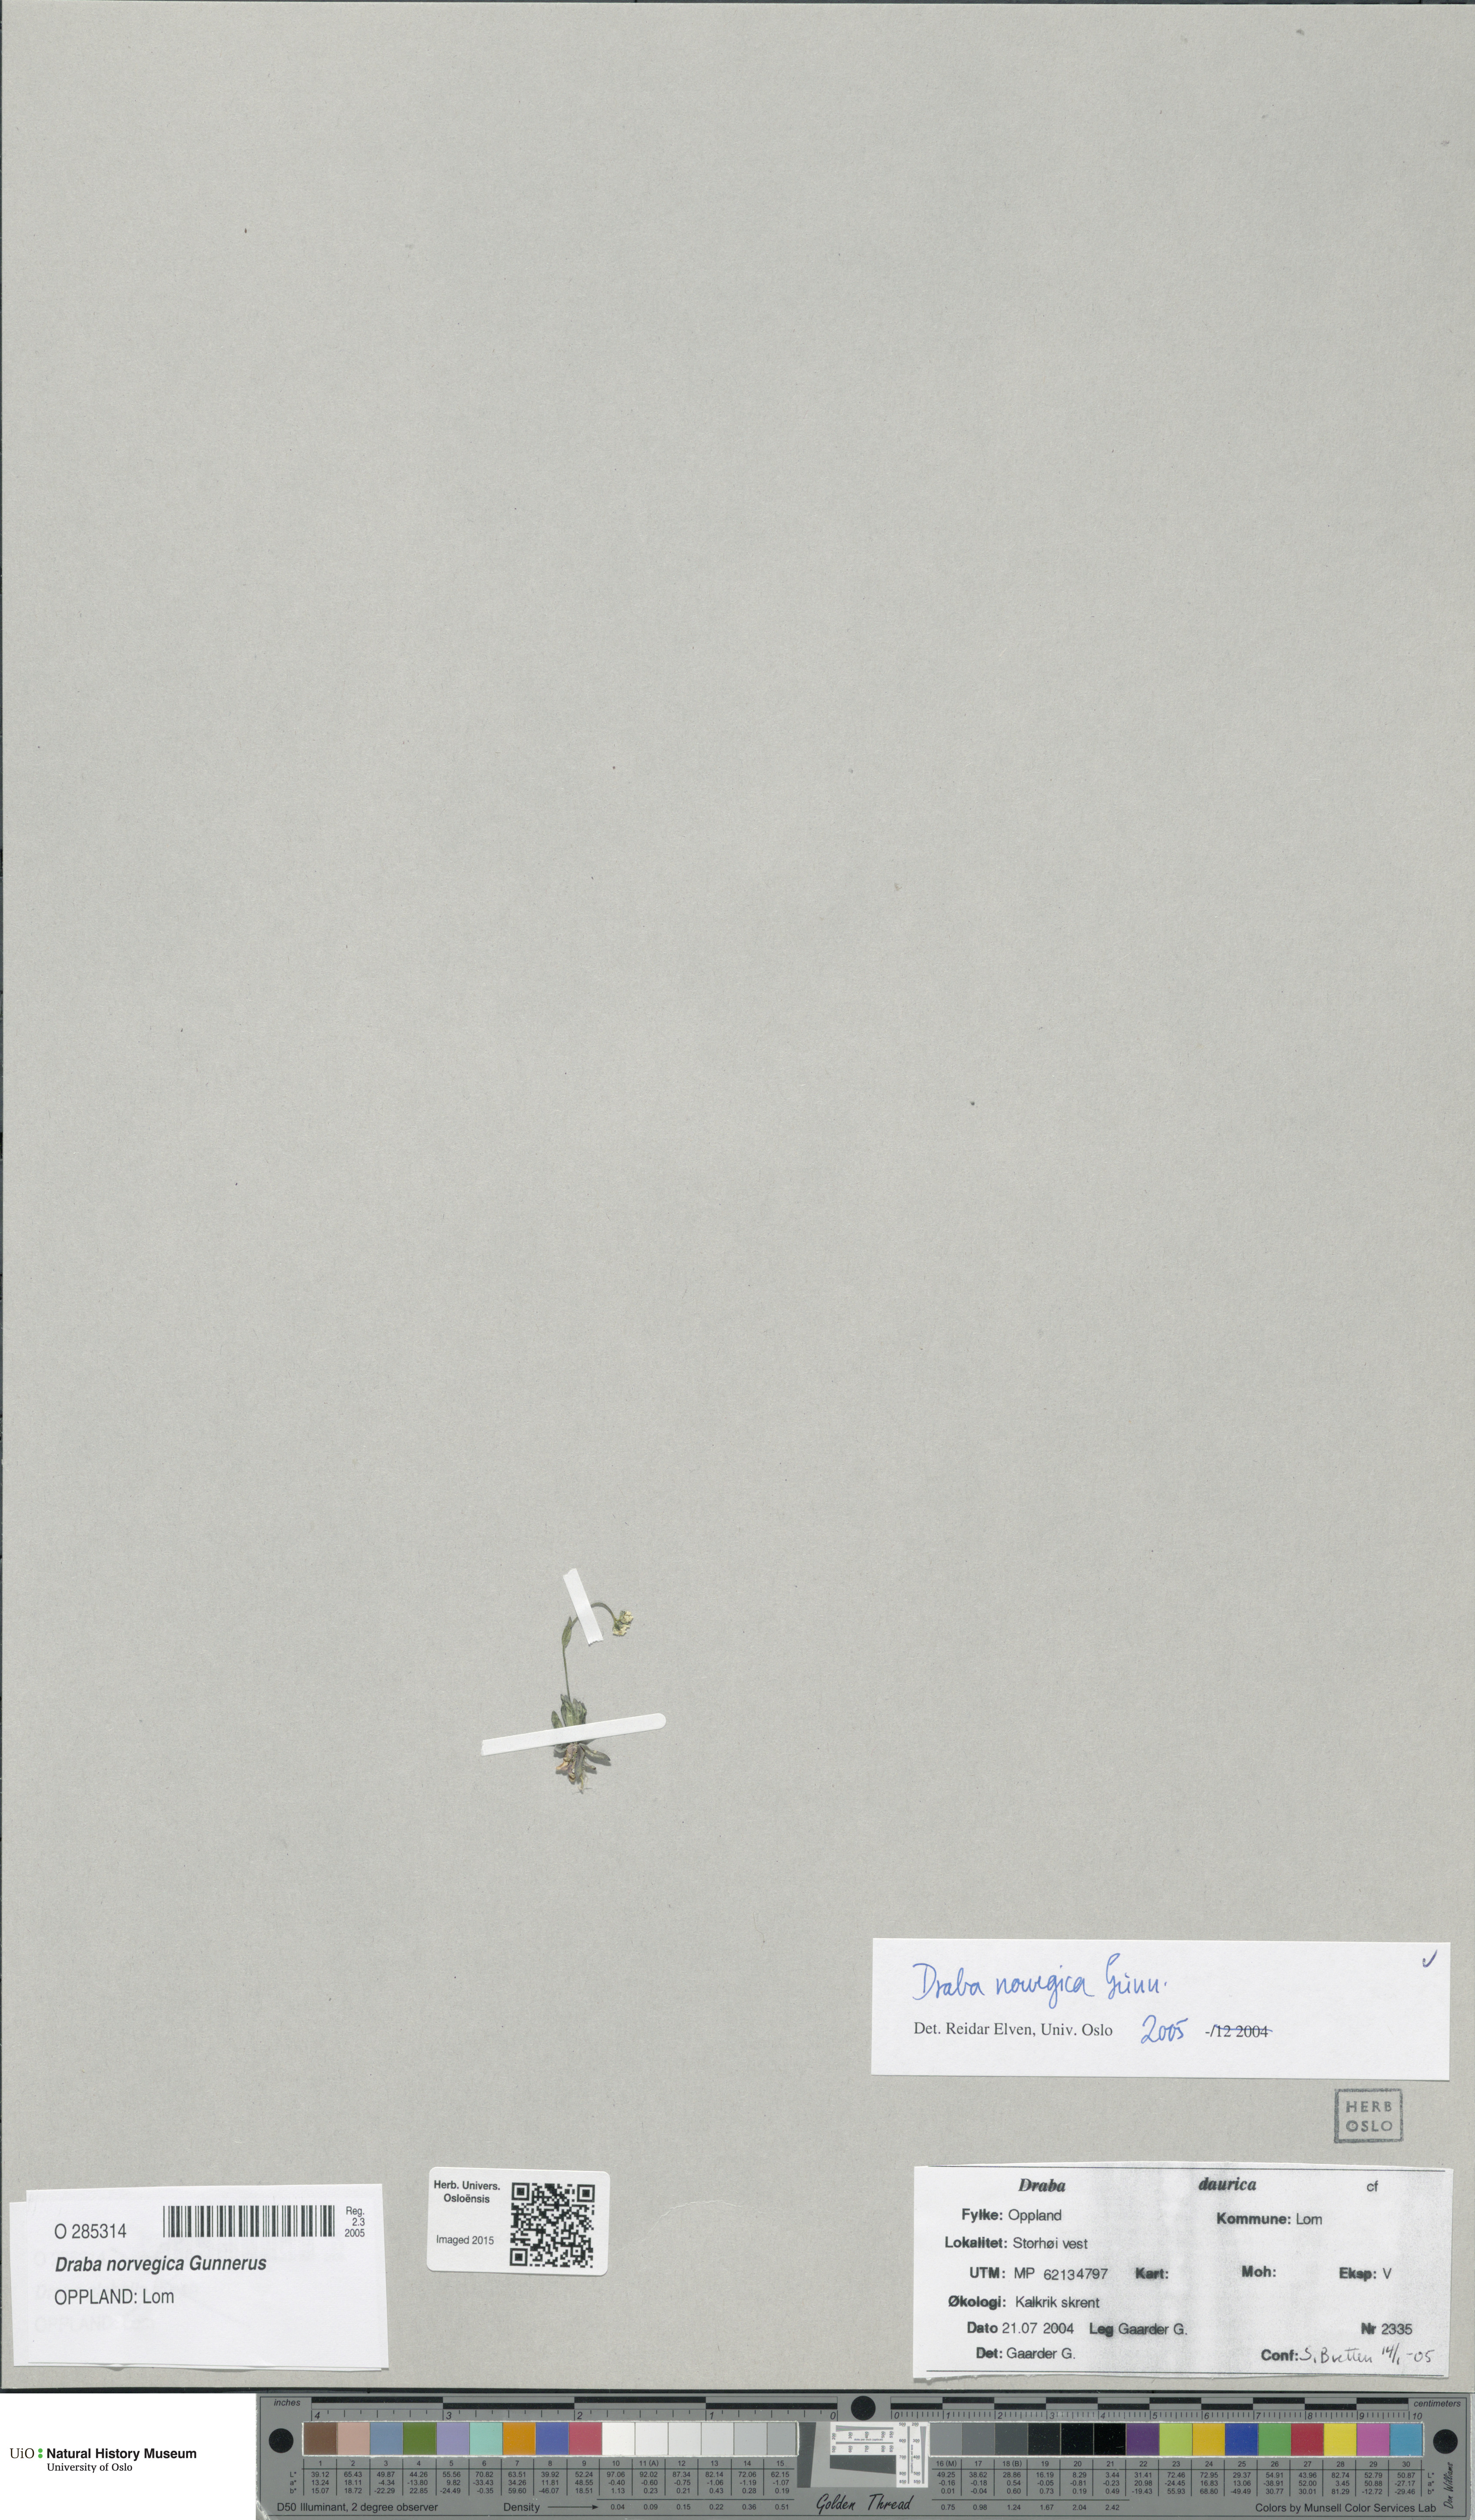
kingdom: Plantae
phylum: Tracheophyta
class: Magnoliopsida
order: Brassicales
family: Brassicaceae
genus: Draba
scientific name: Draba norvegica
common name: Rock whitlowgrass
